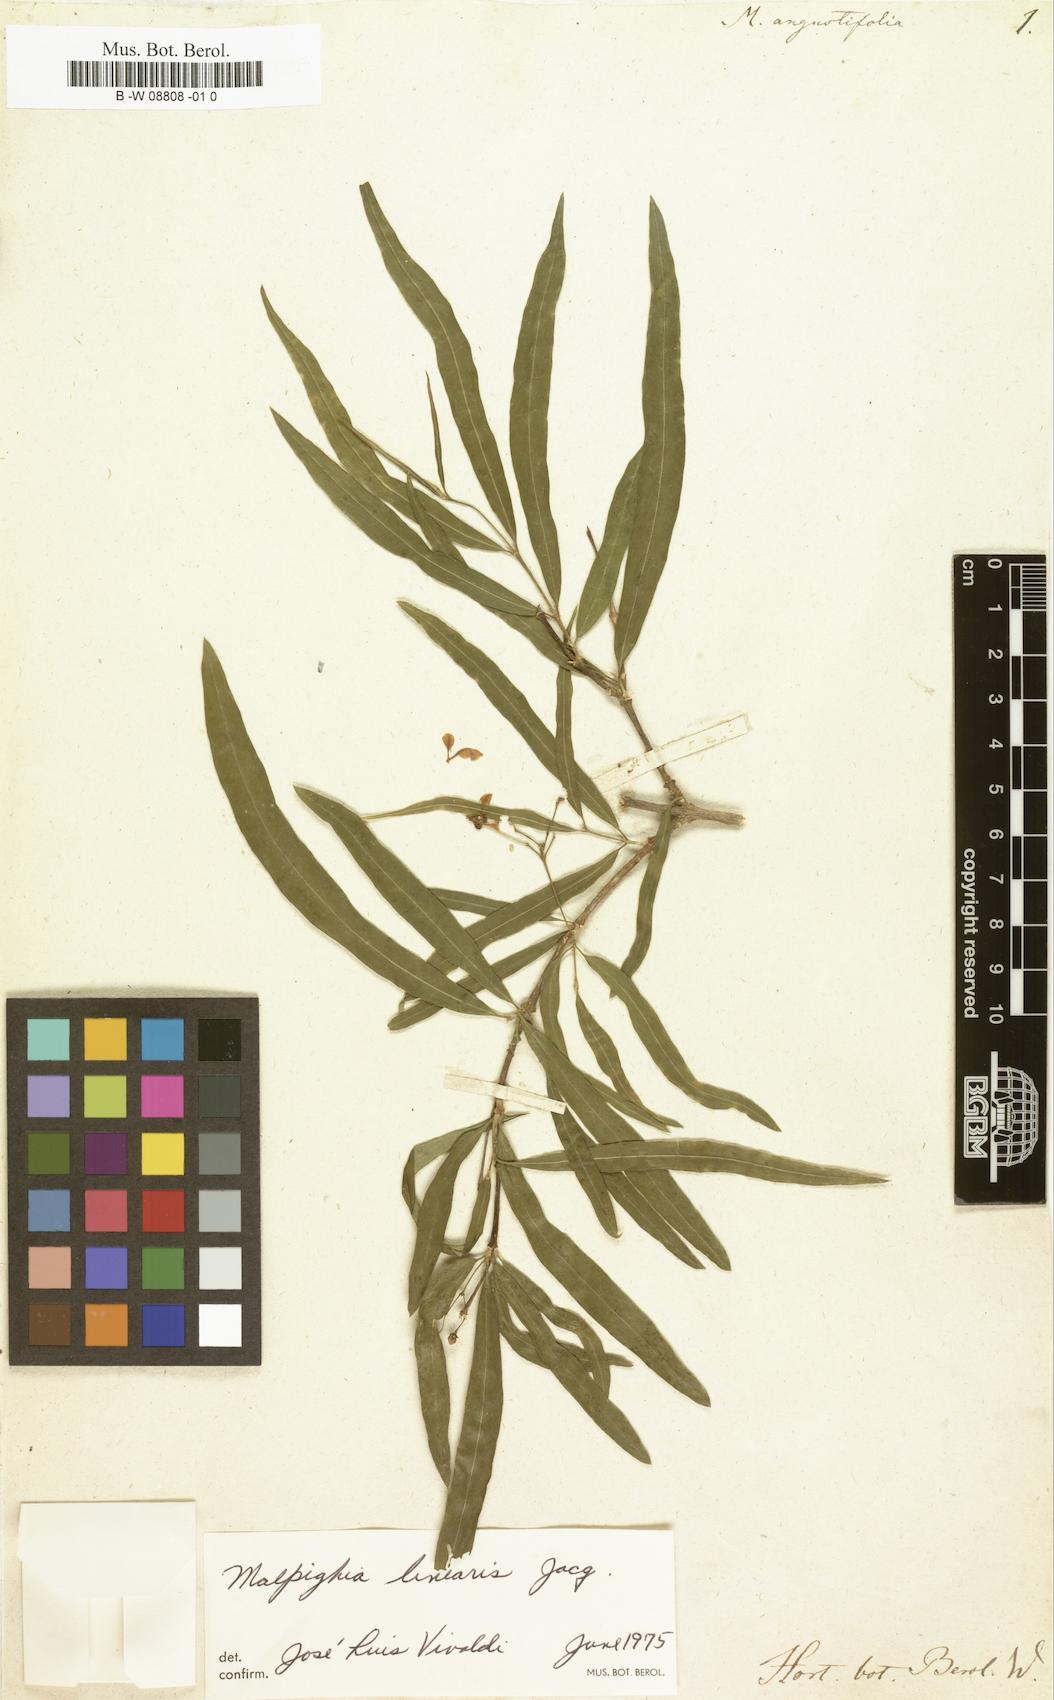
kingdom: Plantae
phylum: Tracheophyta
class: Magnoliopsida
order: Malpighiales
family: Malpighiaceae
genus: Malpighia
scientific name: Malpighia linearis
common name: Bastard cherry
